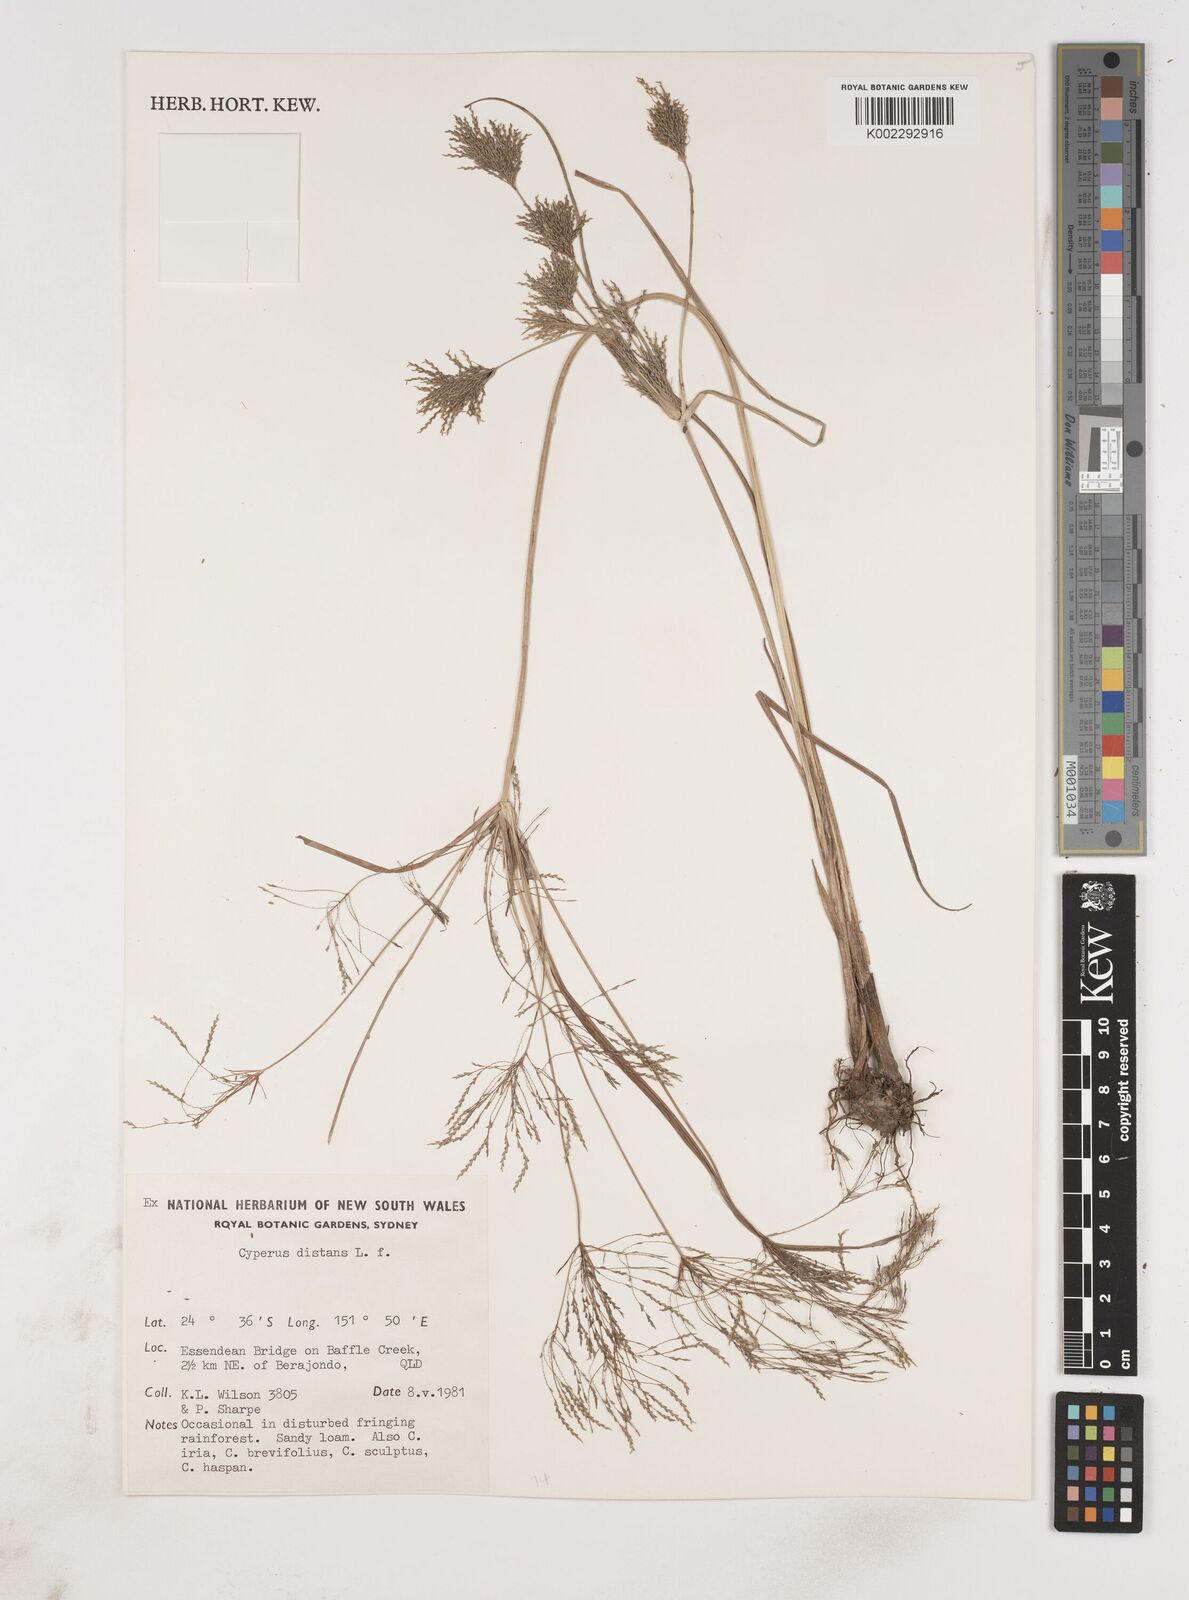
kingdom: Plantae
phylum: Tracheophyta
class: Liliopsida
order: Poales
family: Cyperaceae
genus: Cyperus
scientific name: Cyperus distans
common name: Slender cyperus
